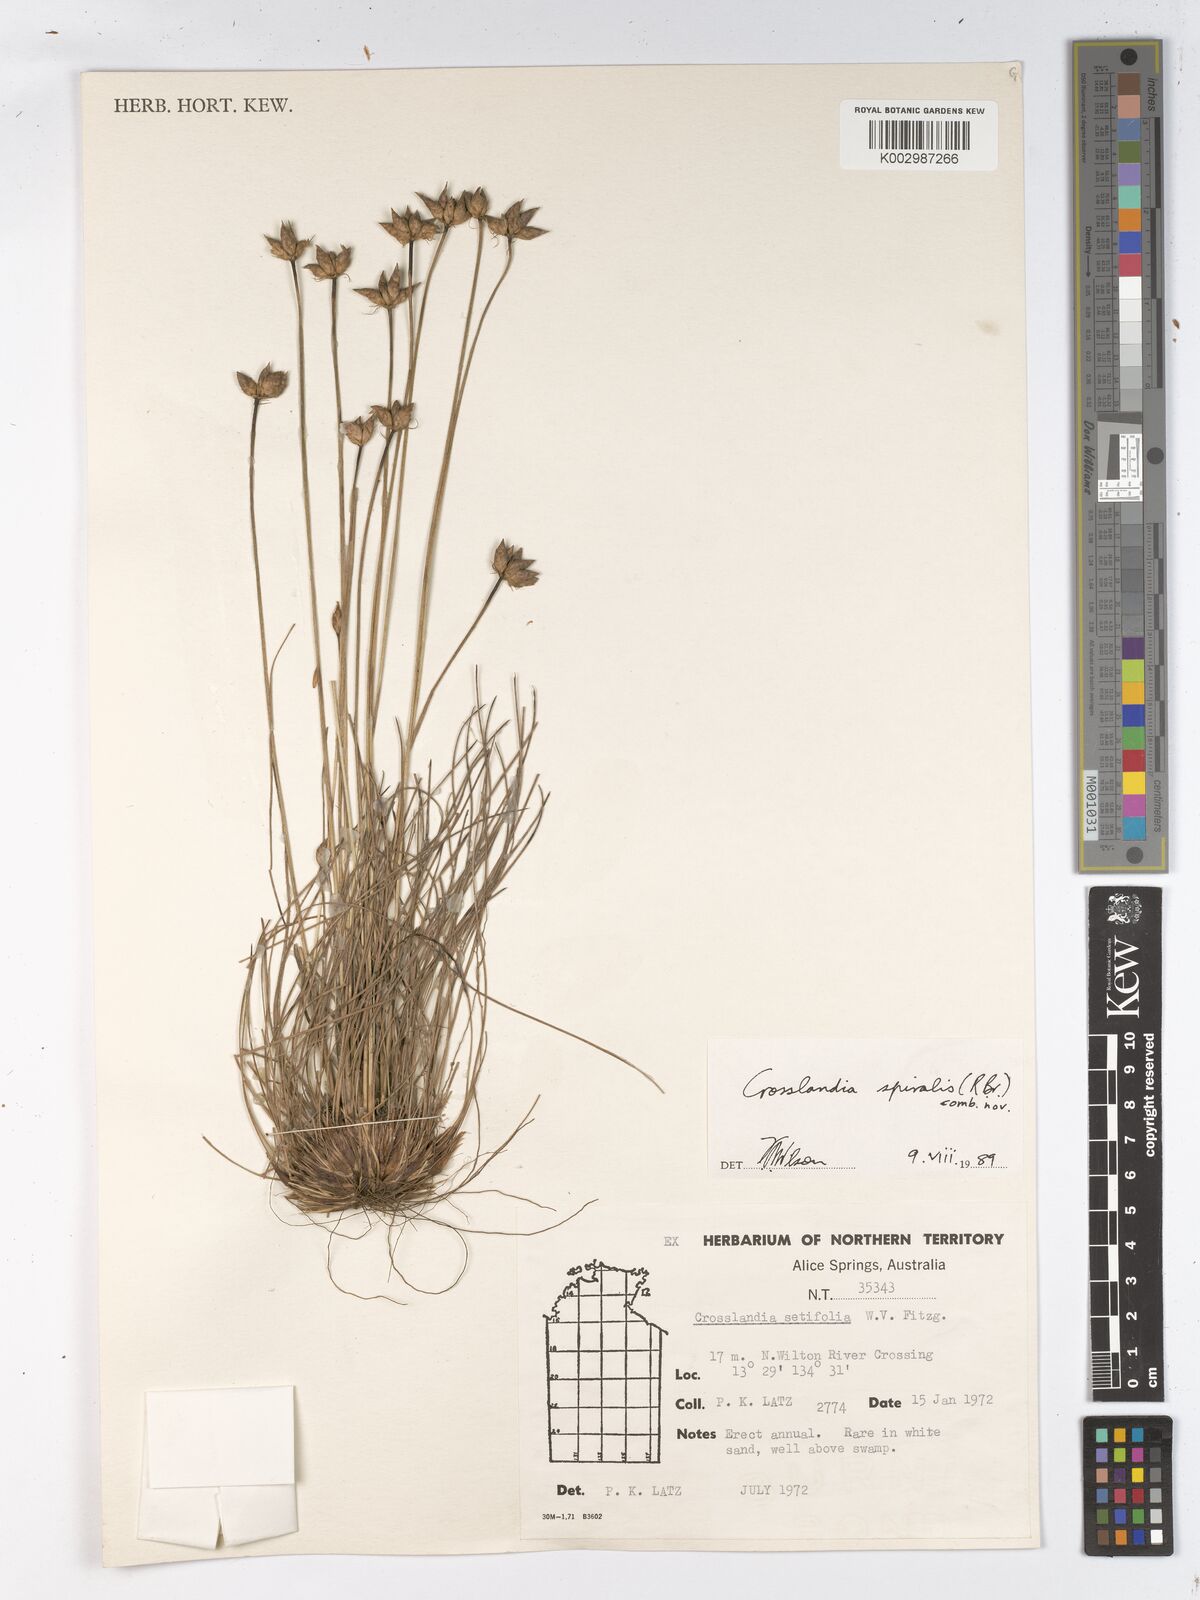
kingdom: Animalia
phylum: Mollusca
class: Gastropoda
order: Nudibranchia
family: Scyllaeidae
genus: Crosslandia
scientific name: Crosslandia
